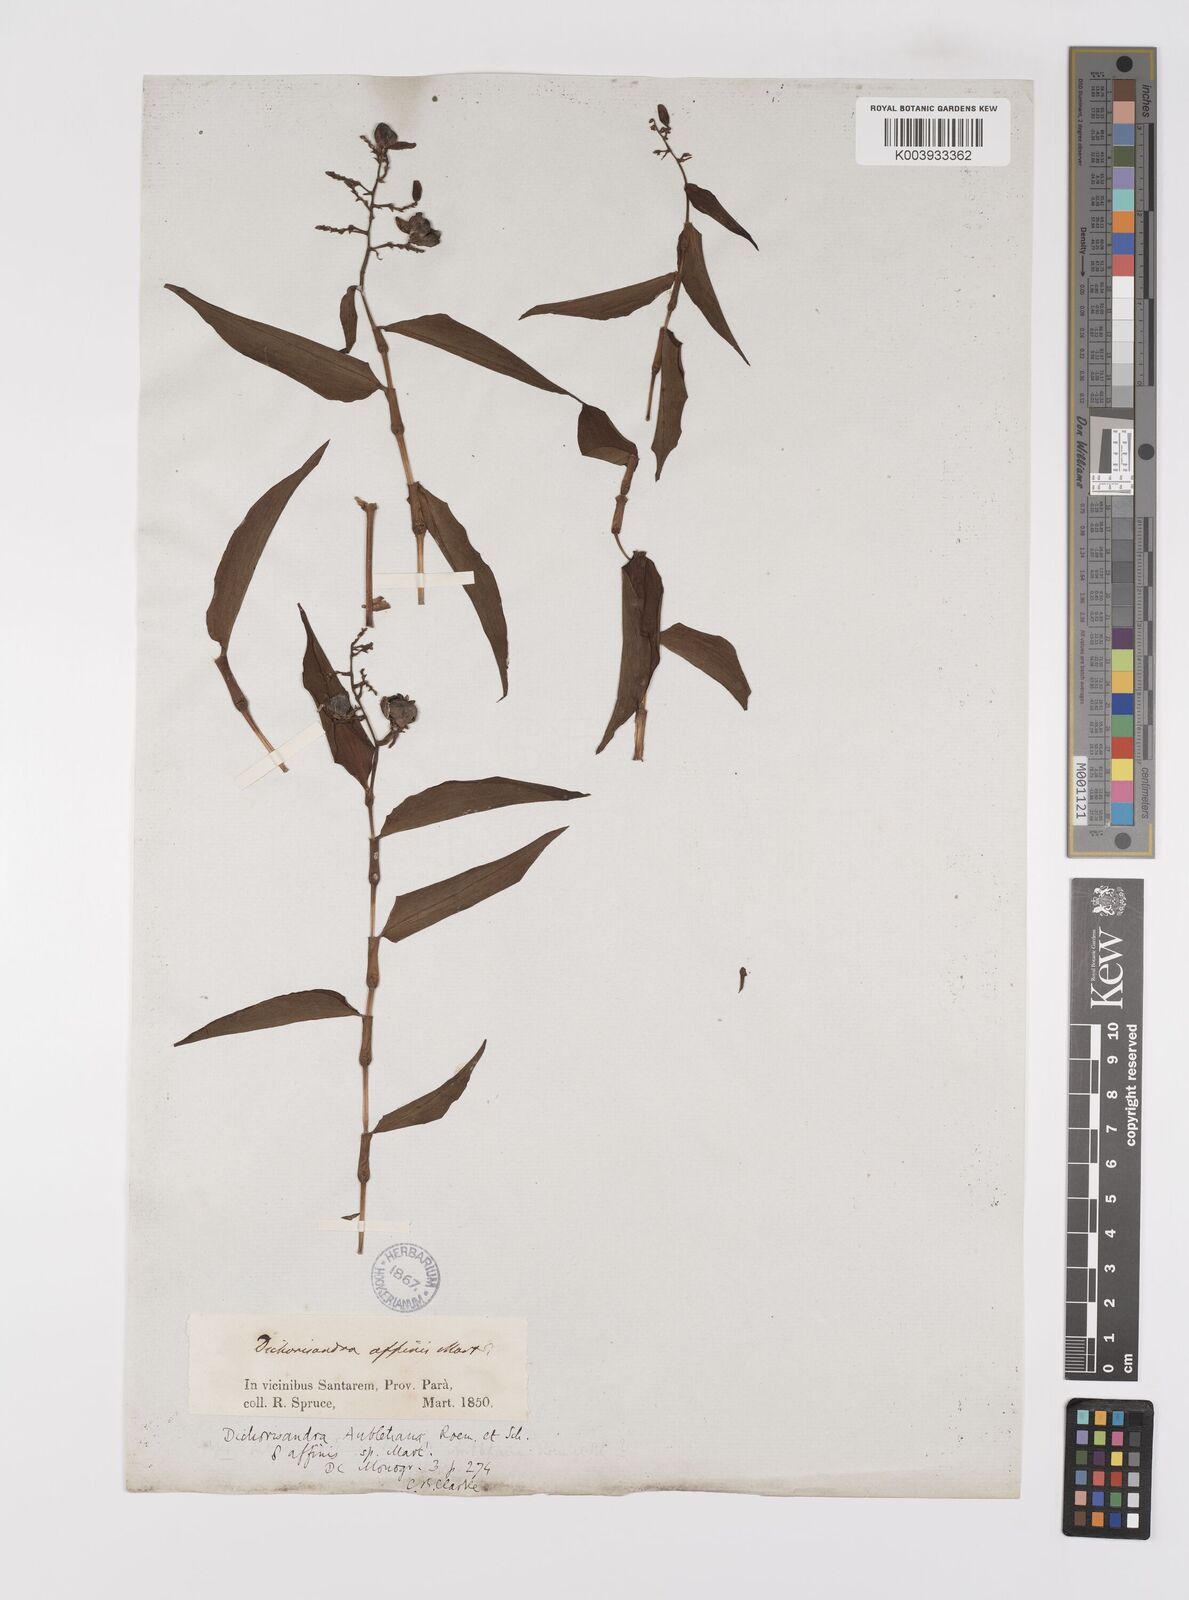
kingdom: Plantae
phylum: Tracheophyta
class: Liliopsida
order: Commelinales
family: Commelinaceae
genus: Dichorisandra
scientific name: Dichorisandra hexandra
